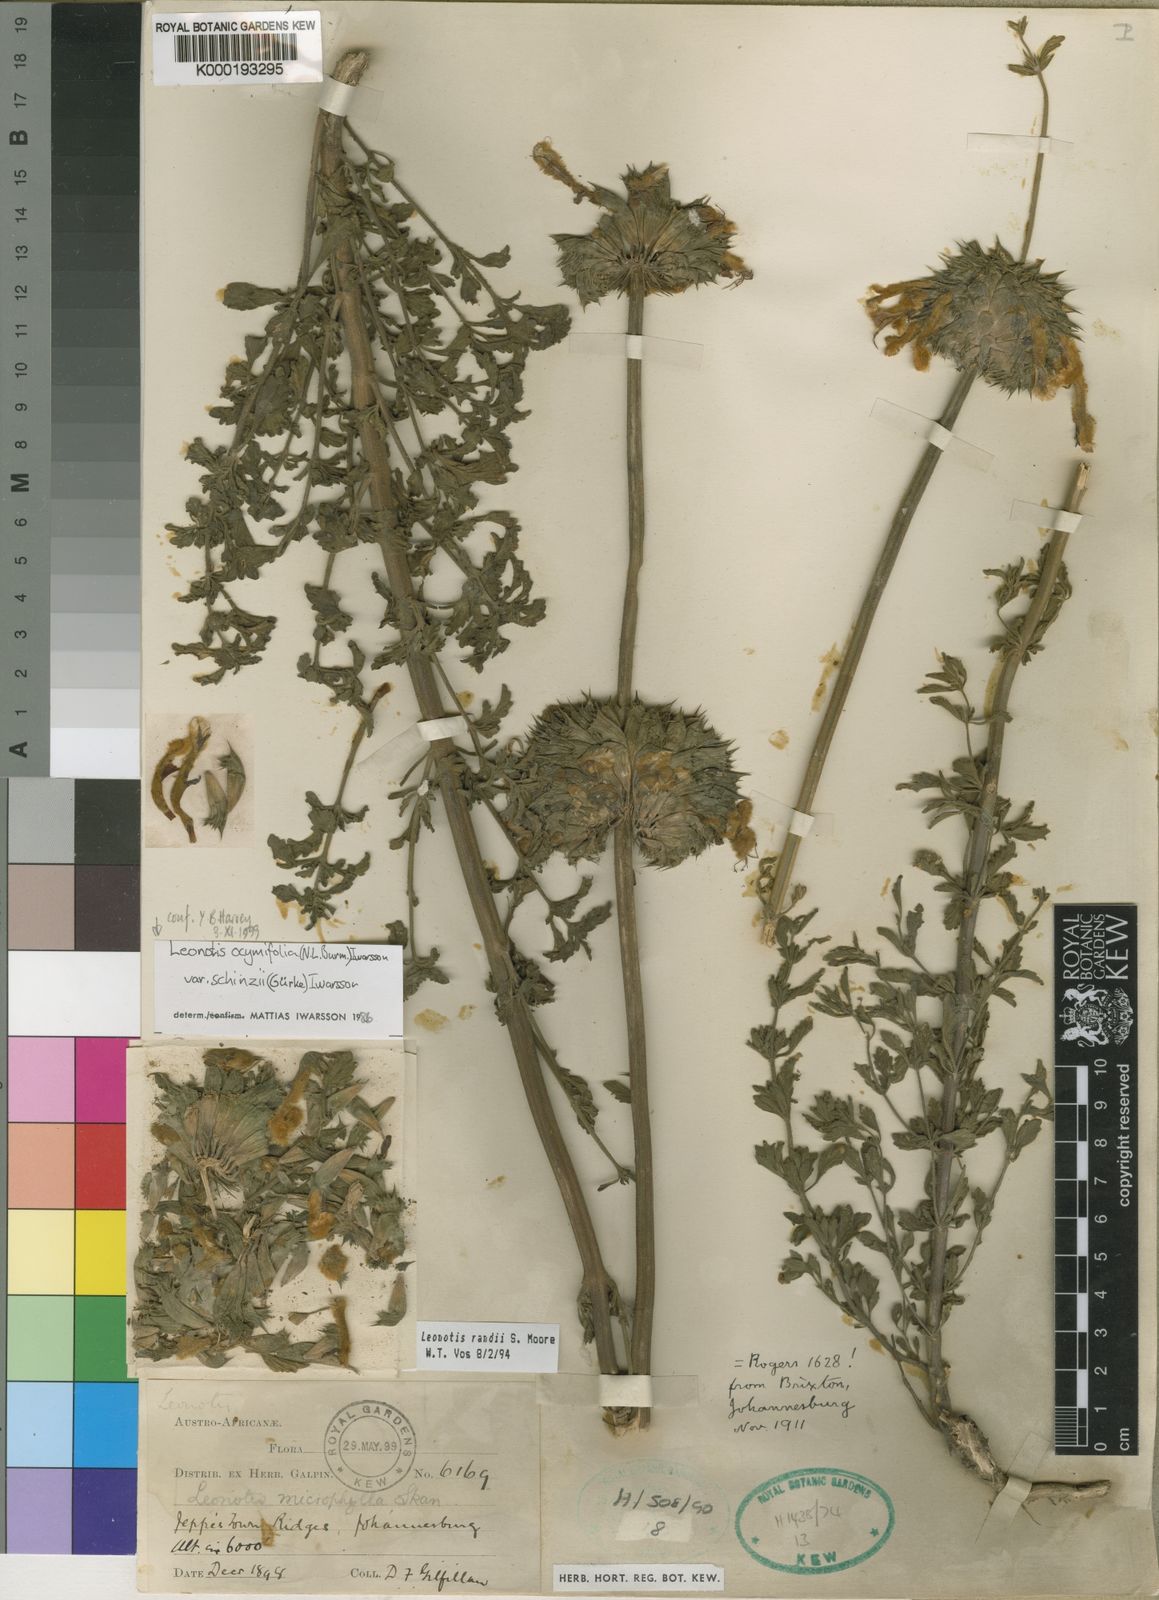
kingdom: Plantae
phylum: Tracheophyta
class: Magnoliopsida
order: Lamiales
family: Lamiaceae
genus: Leonotis
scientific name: Leonotis ocymifolia
